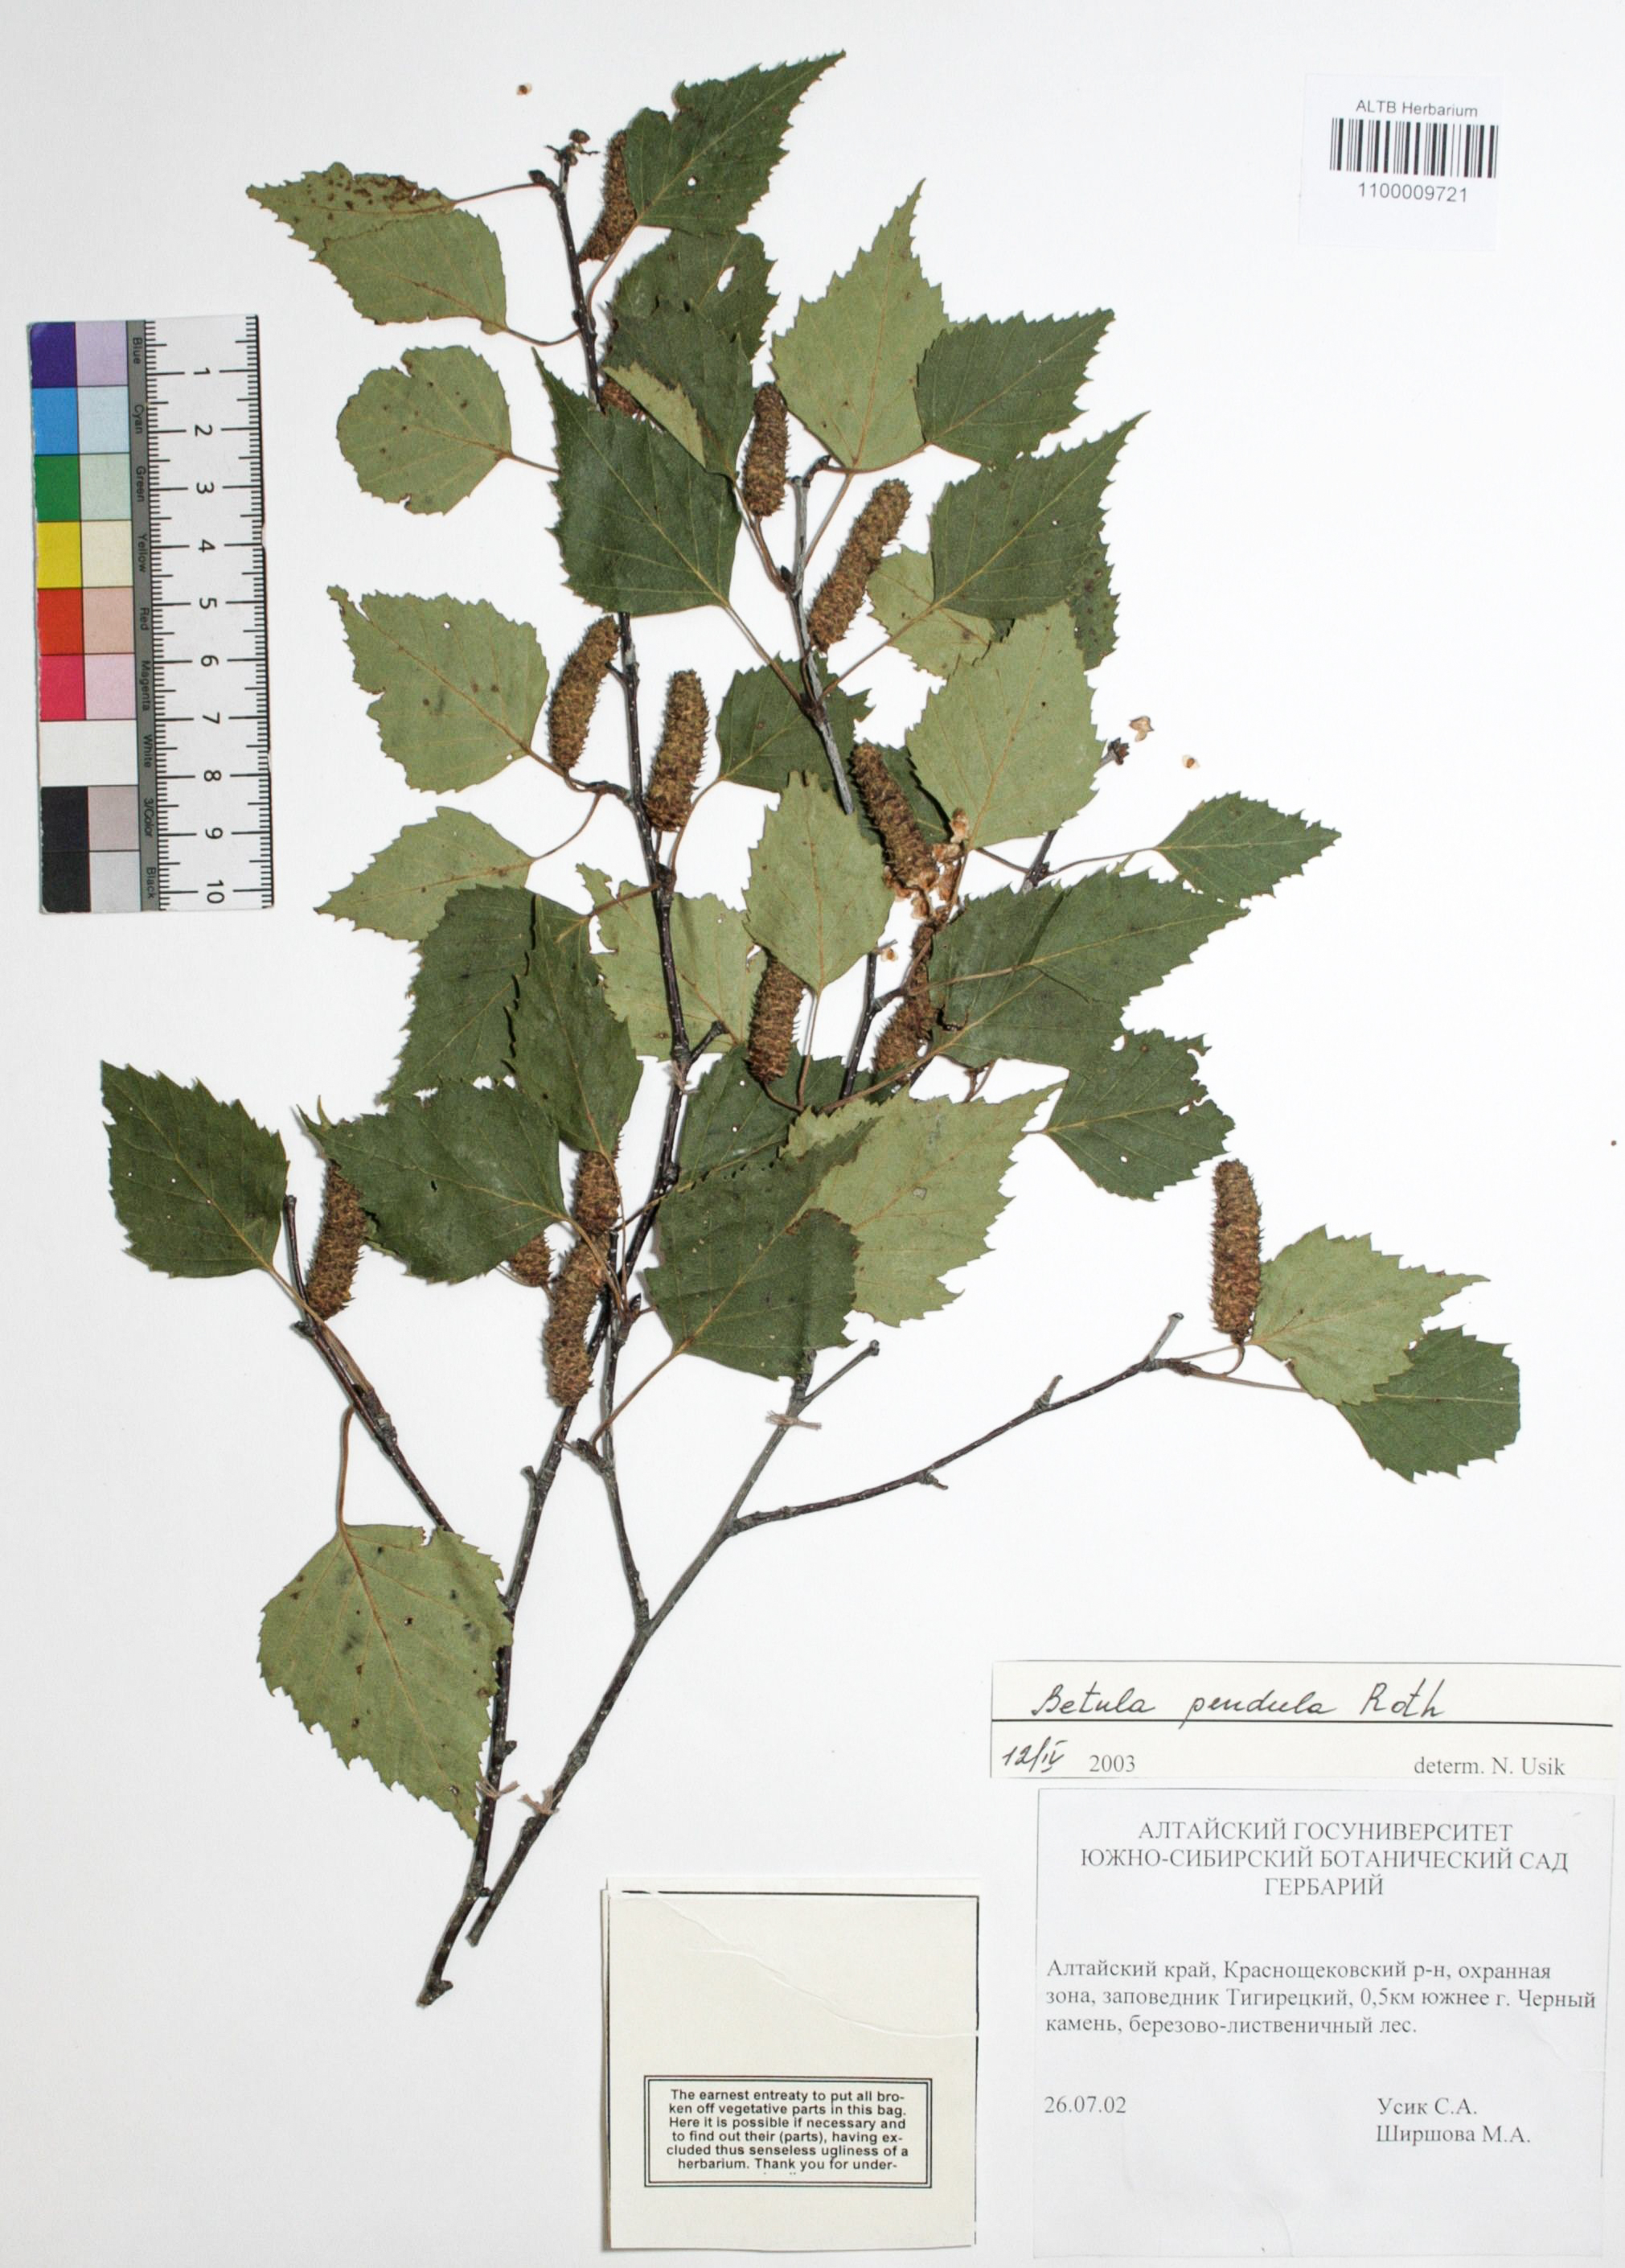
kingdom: Plantae
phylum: Tracheophyta
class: Magnoliopsida
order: Fagales
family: Betulaceae
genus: Betula
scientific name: Betula pendula
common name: Silver birch
